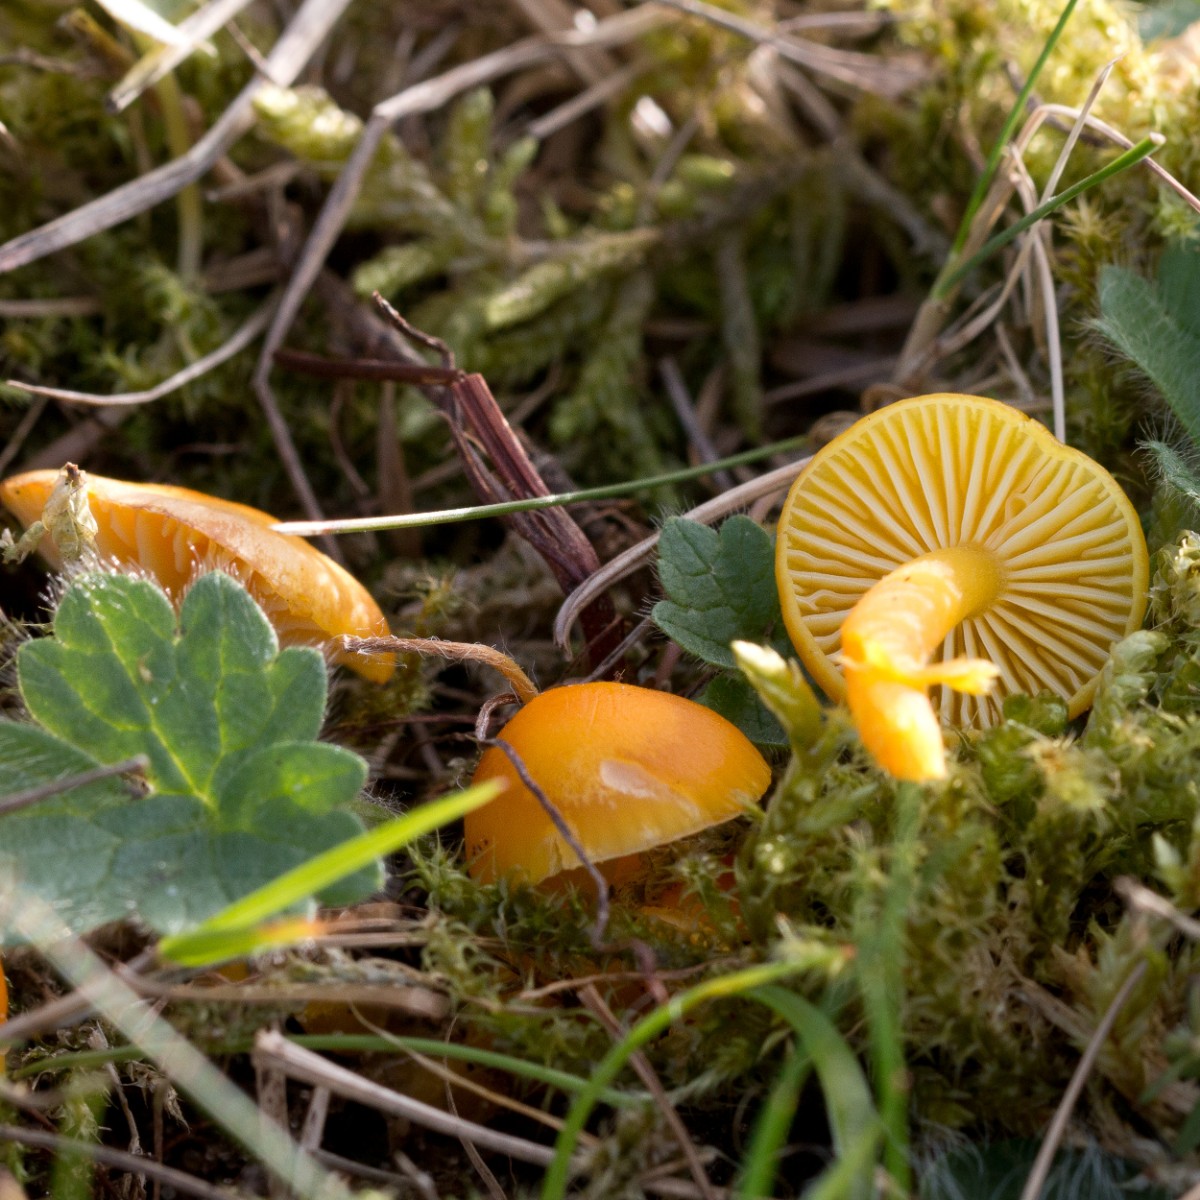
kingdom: Fungi
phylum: Basidiomycota
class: Agaricomycetes
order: Agaricales
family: Hygrophoraceae
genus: Hygrocybe
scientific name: Hygrocybe ceracea
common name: voksgul vokshat
